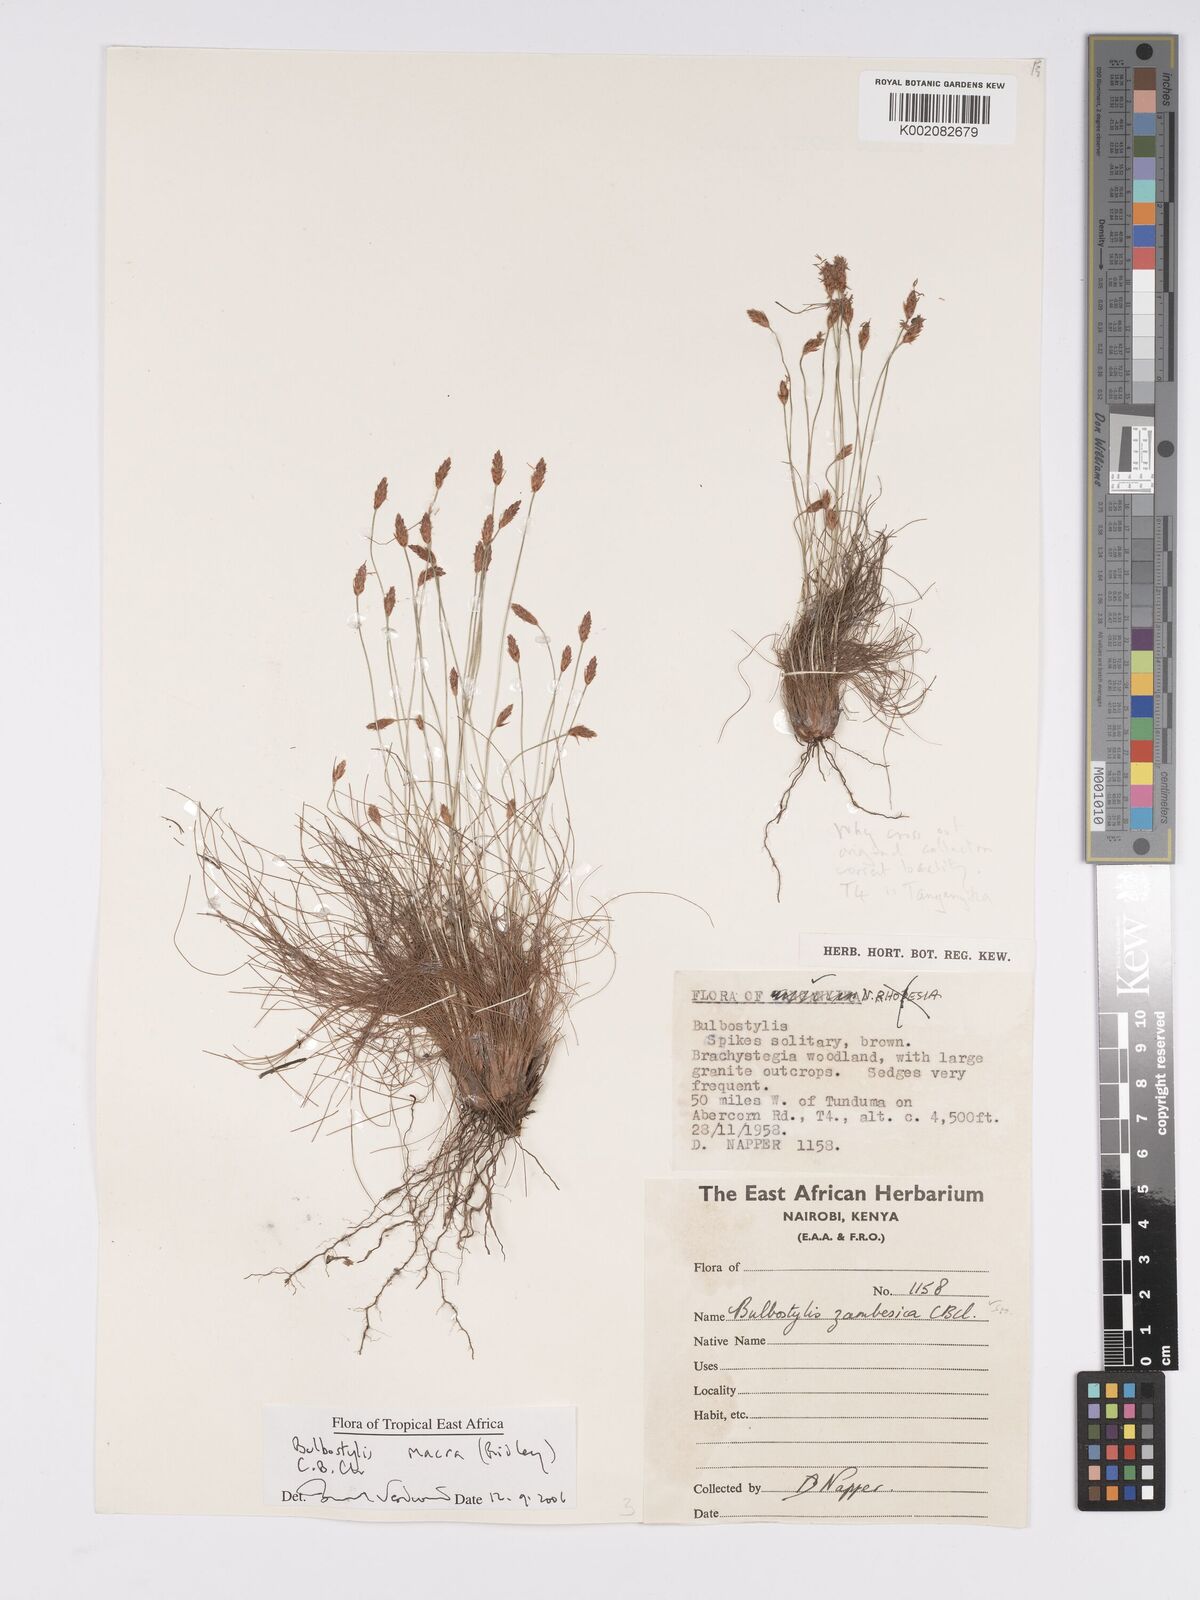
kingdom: Plantae
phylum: Tracheophyta
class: Liliopsida
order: Poales
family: Cyperaceae
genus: Bulbostylis
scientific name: Bulbostylis macra
